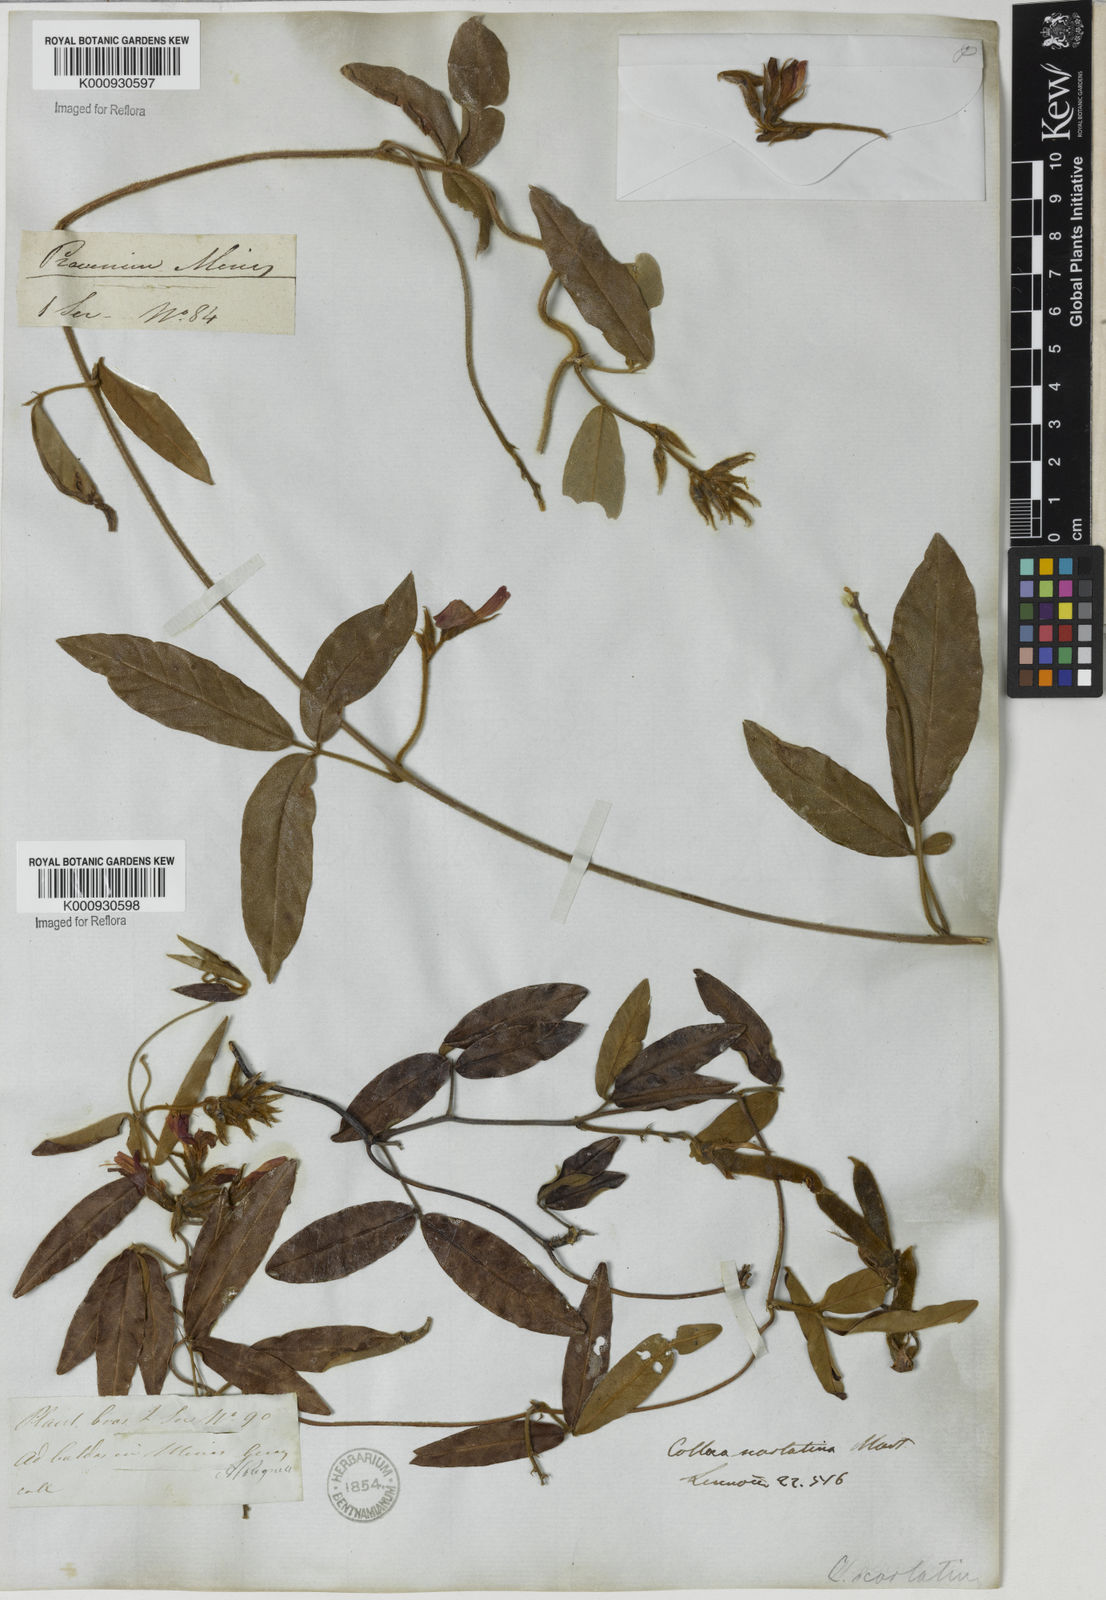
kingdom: Plantae
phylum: Tracheophyta
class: Magnoliopsida
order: Fabales
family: Fabaceae
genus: Betencourtia
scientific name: Betencourtia scarlatina
